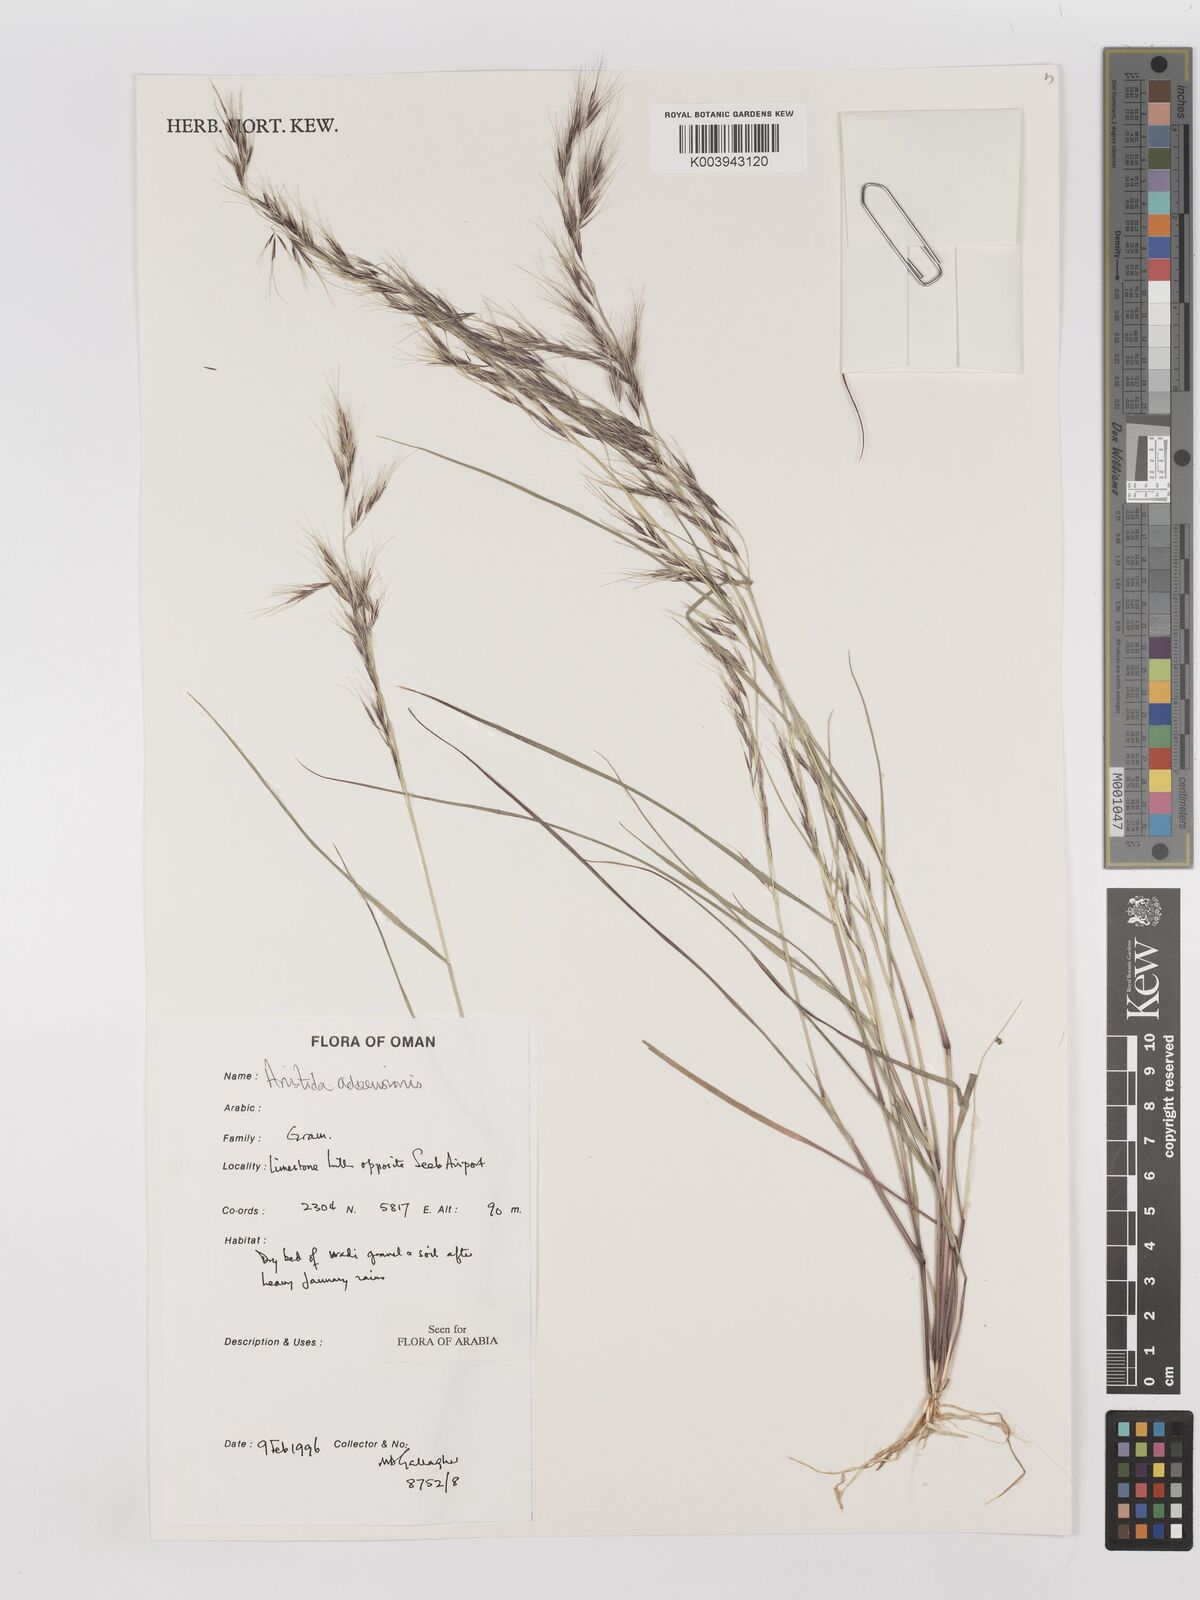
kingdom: Plantae
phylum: Tracheophyta
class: Liliopsida
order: Poales
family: Poaceae
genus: Aristida
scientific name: Aristida adscensionis
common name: Sixweeks threeawn
